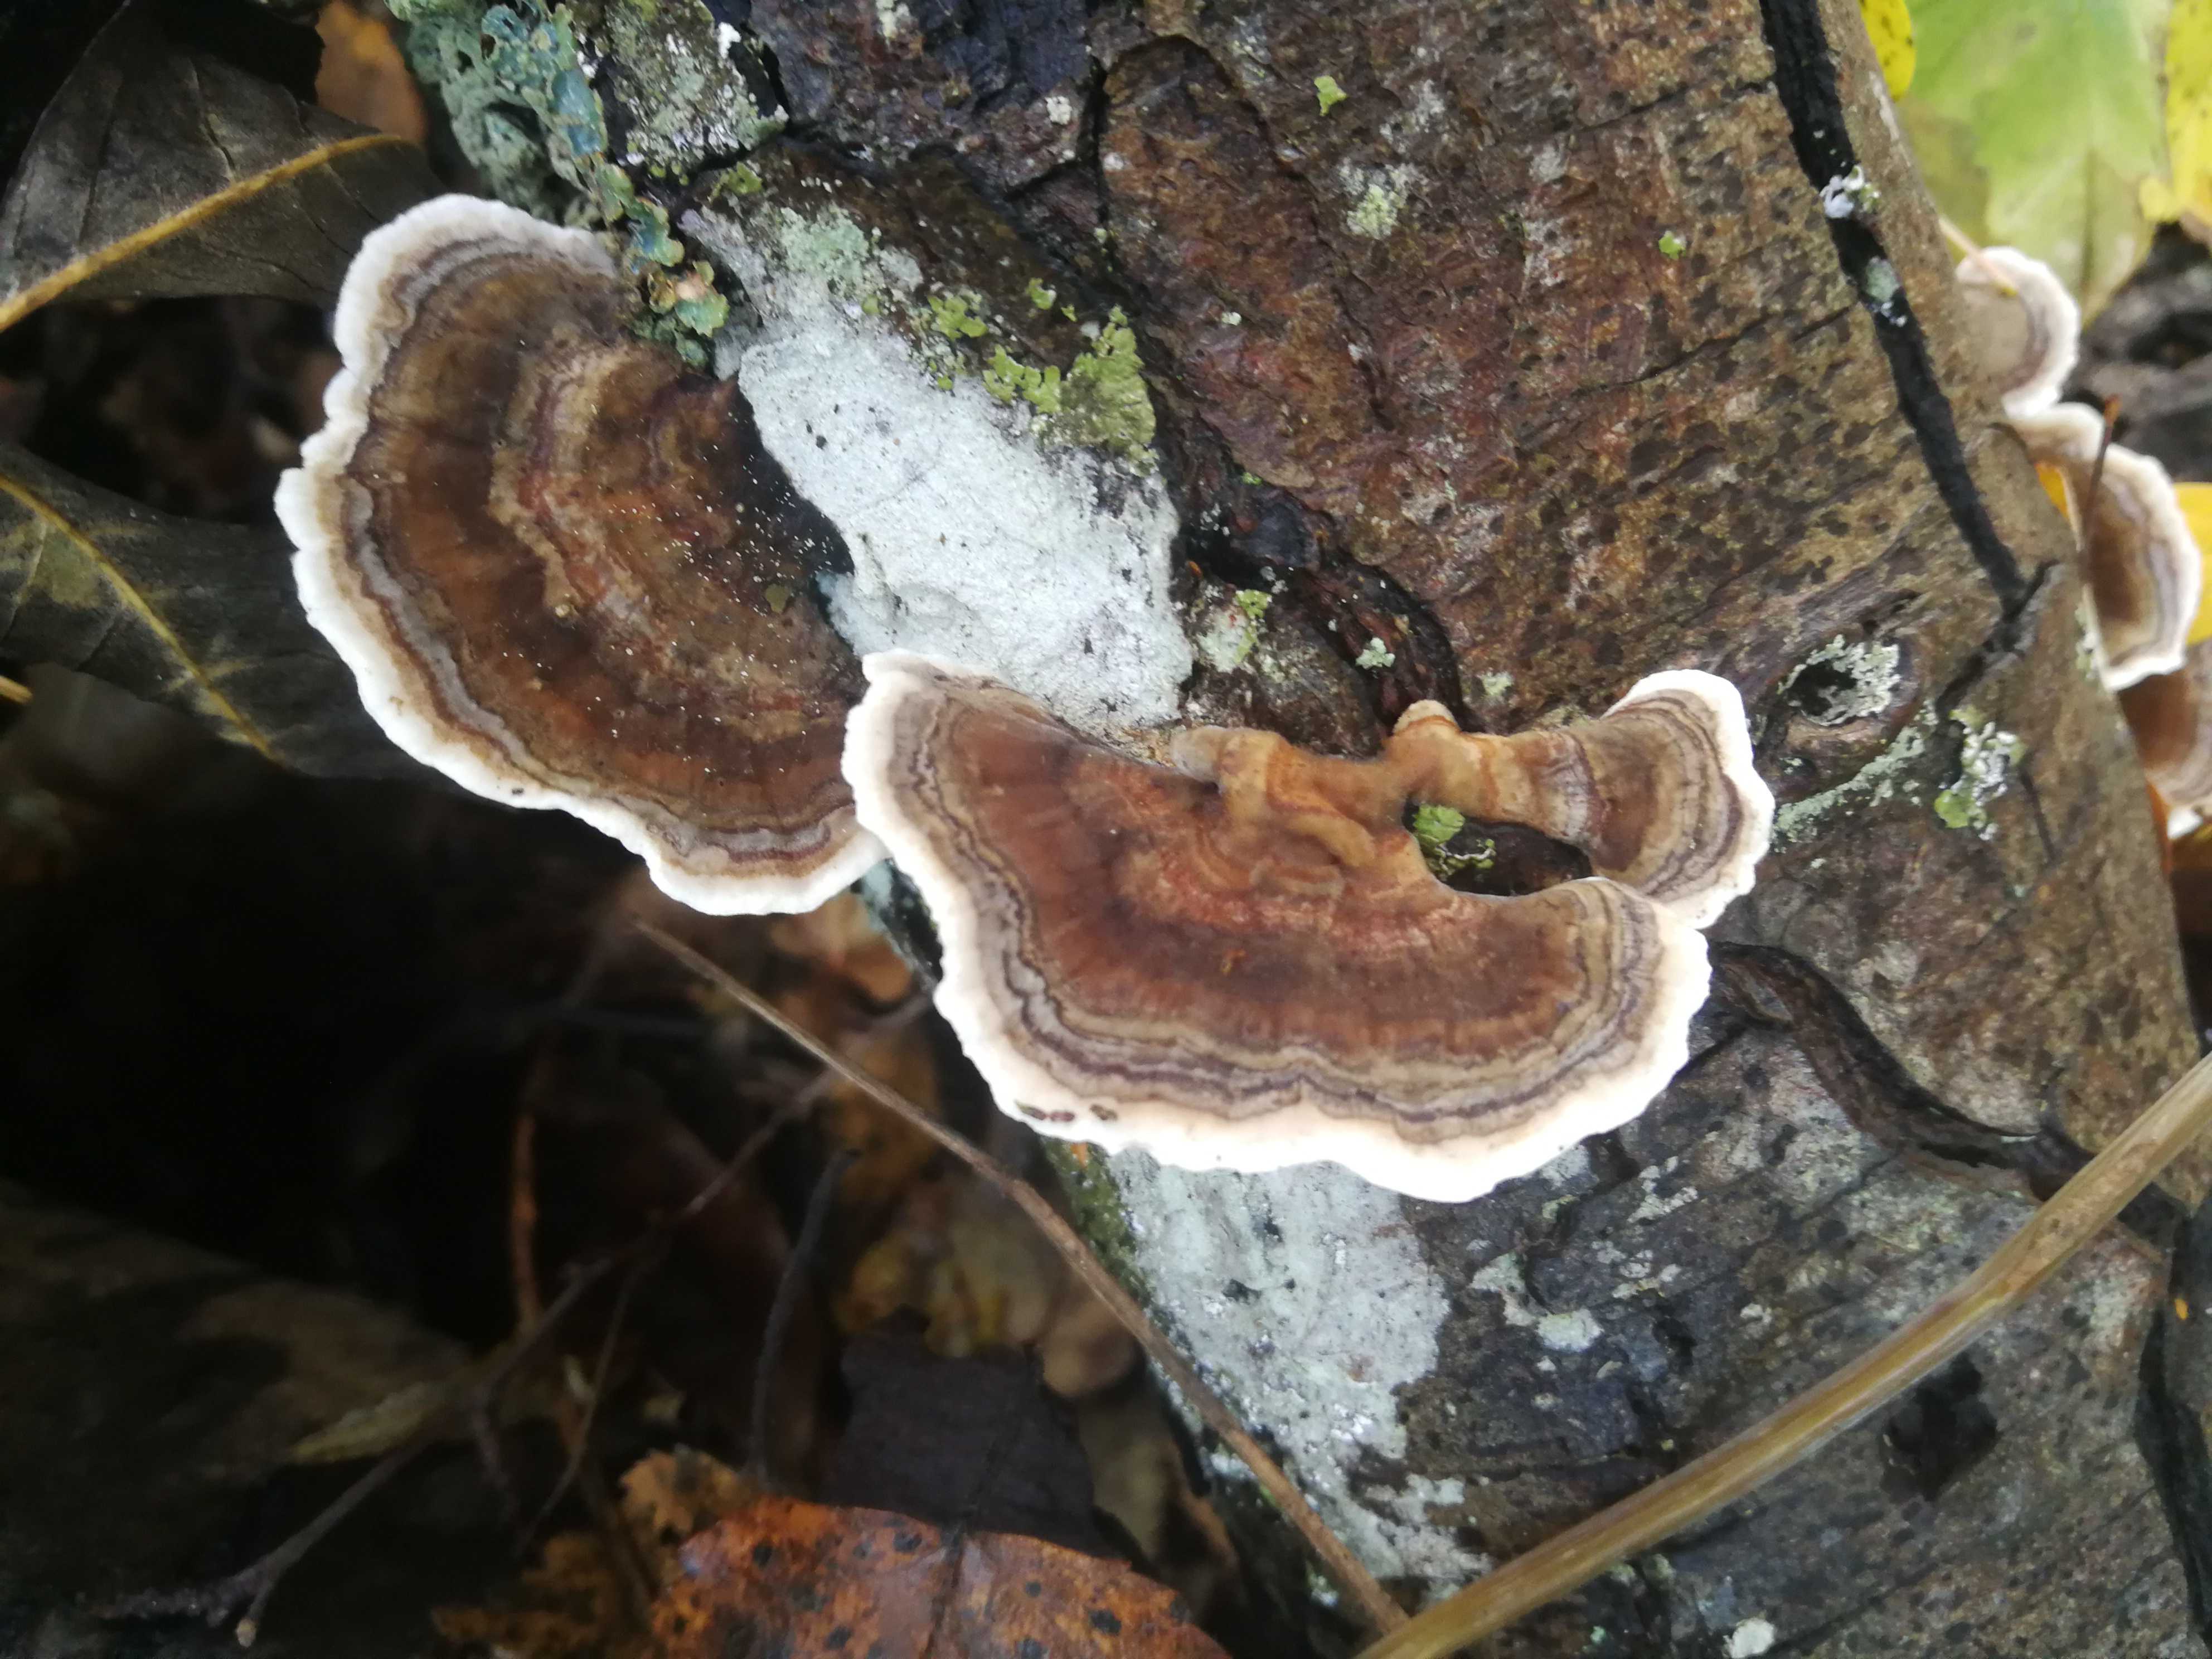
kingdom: Fungi
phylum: Basidiomycota
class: Agaricomycetes
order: Polyporales
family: Polyporaceae
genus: Trametes
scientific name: Trametes versicolor
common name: broget læderporesvamp
